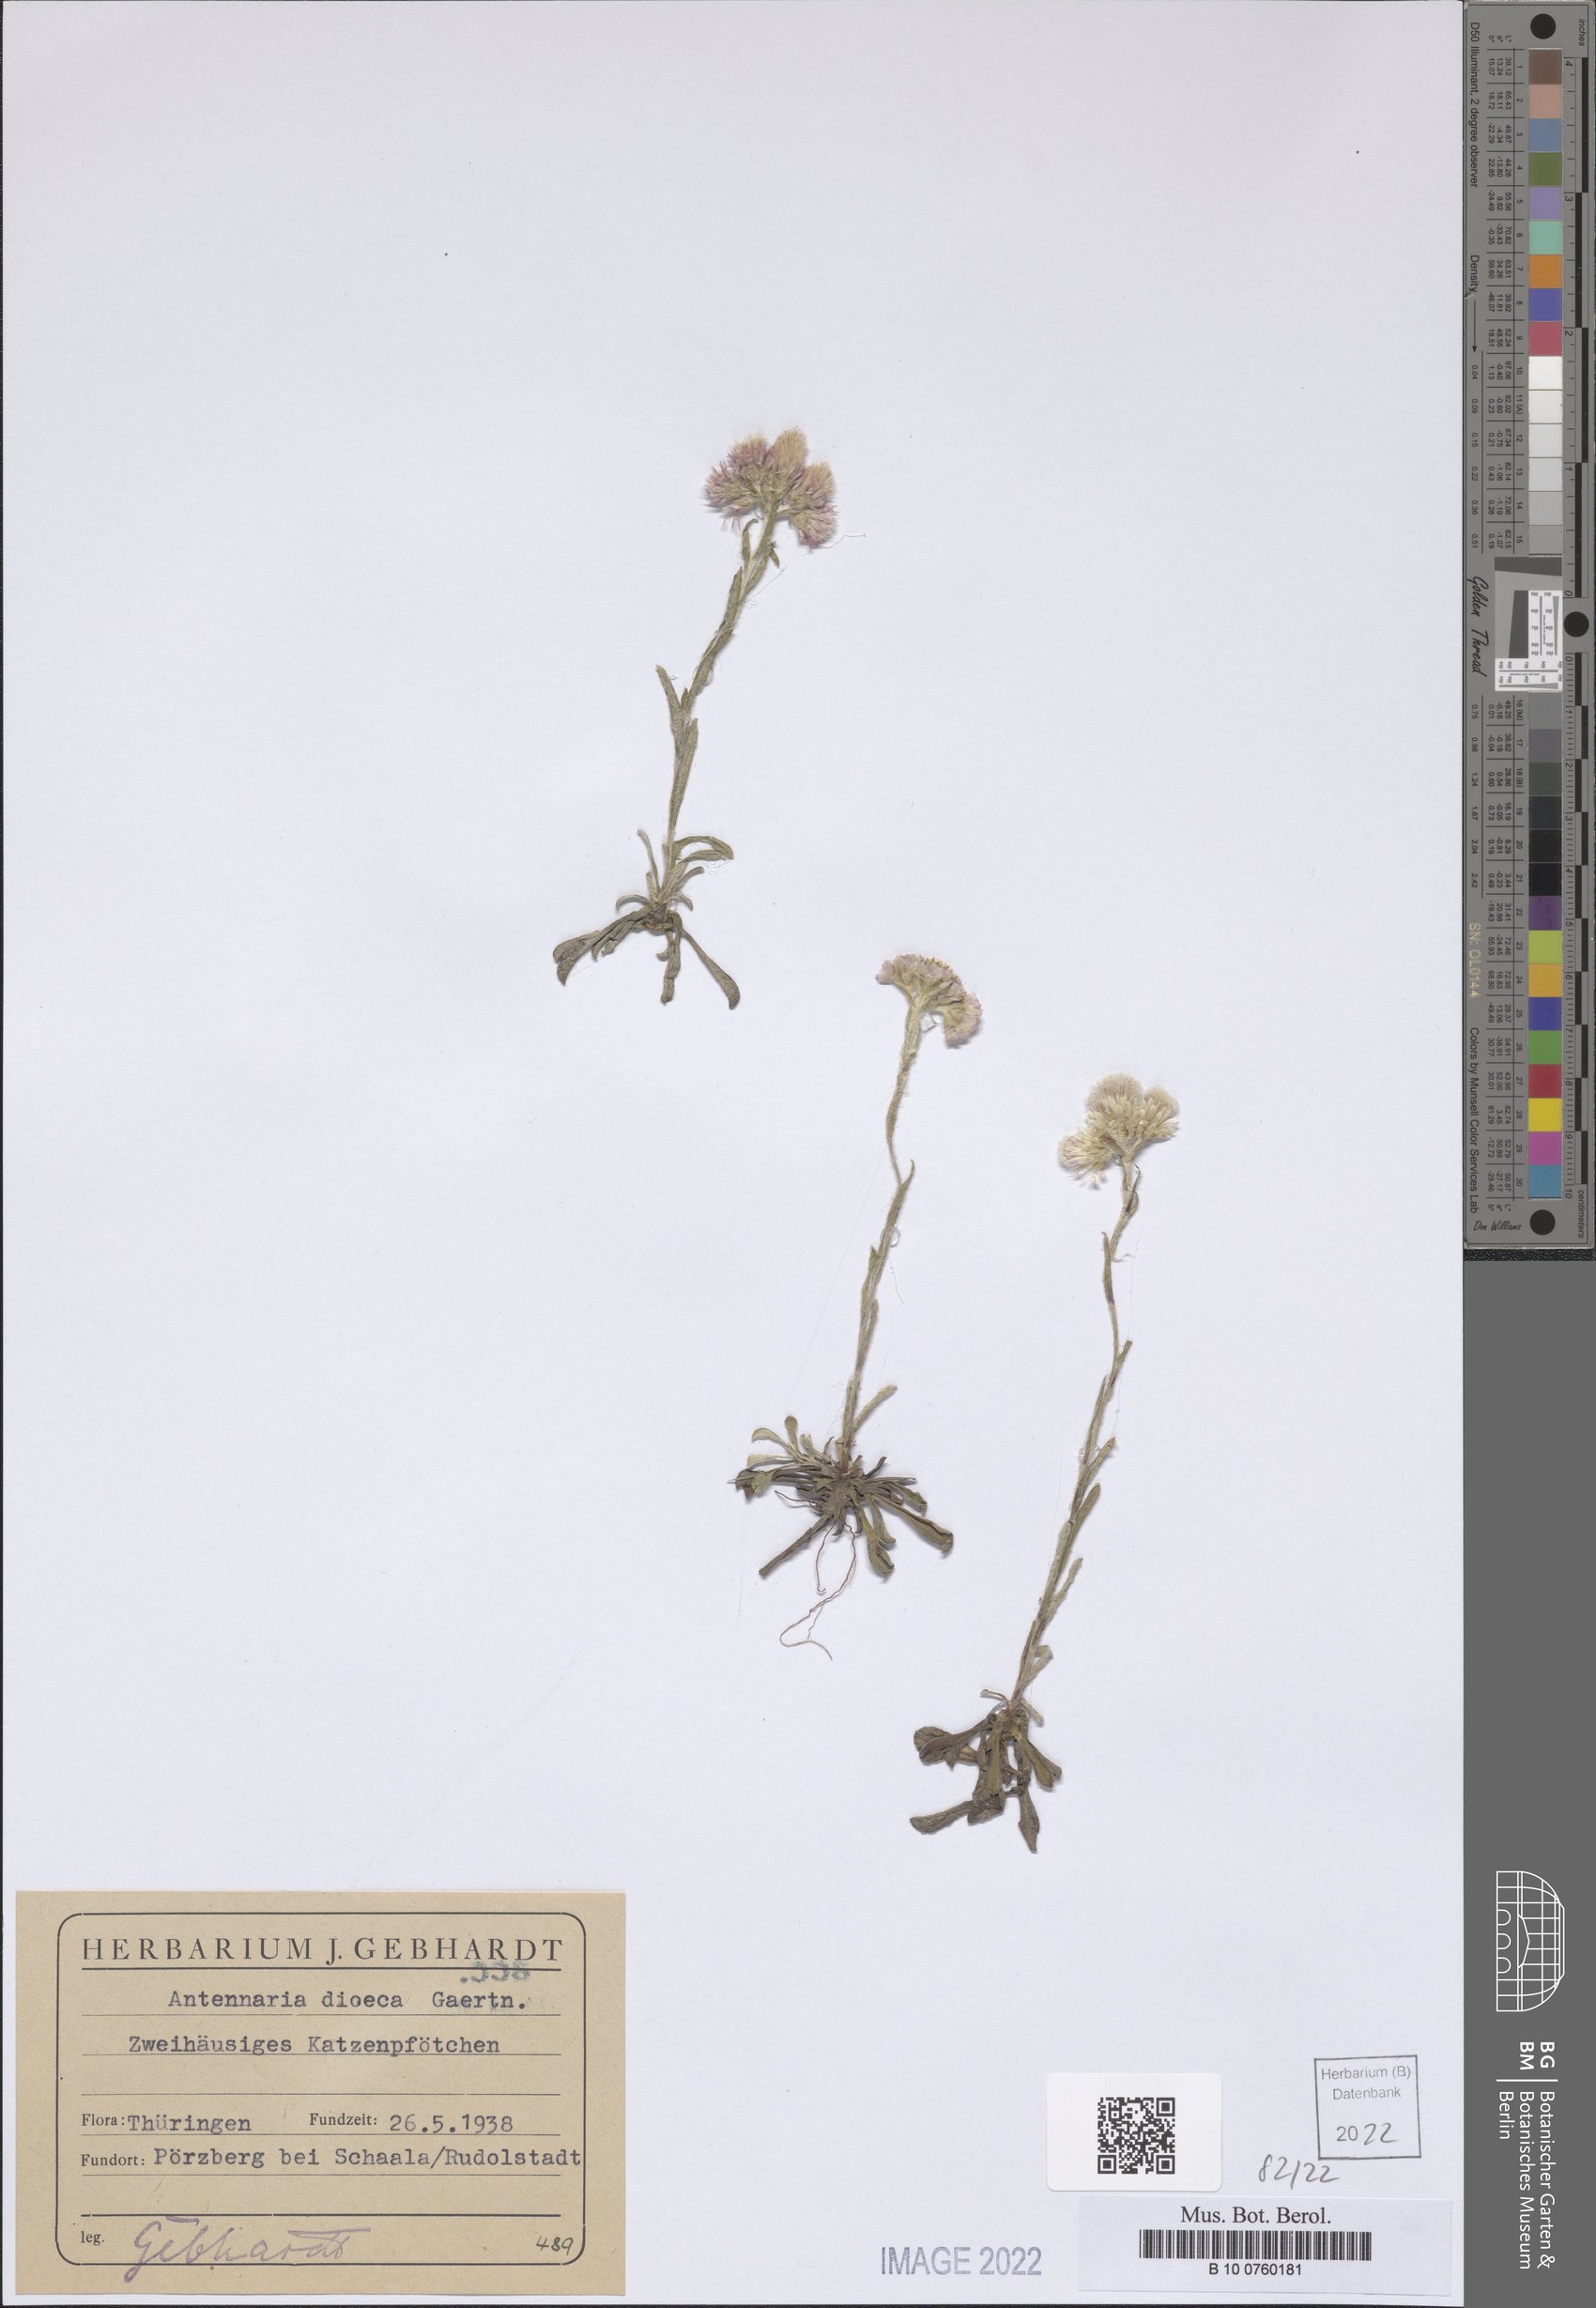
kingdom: Plantae
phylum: Tracheophyta
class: Magnoliopsida
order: Asterales
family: Asteraceae
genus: Antennaria
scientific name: Antennaria dioica
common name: Mountain everlasting
